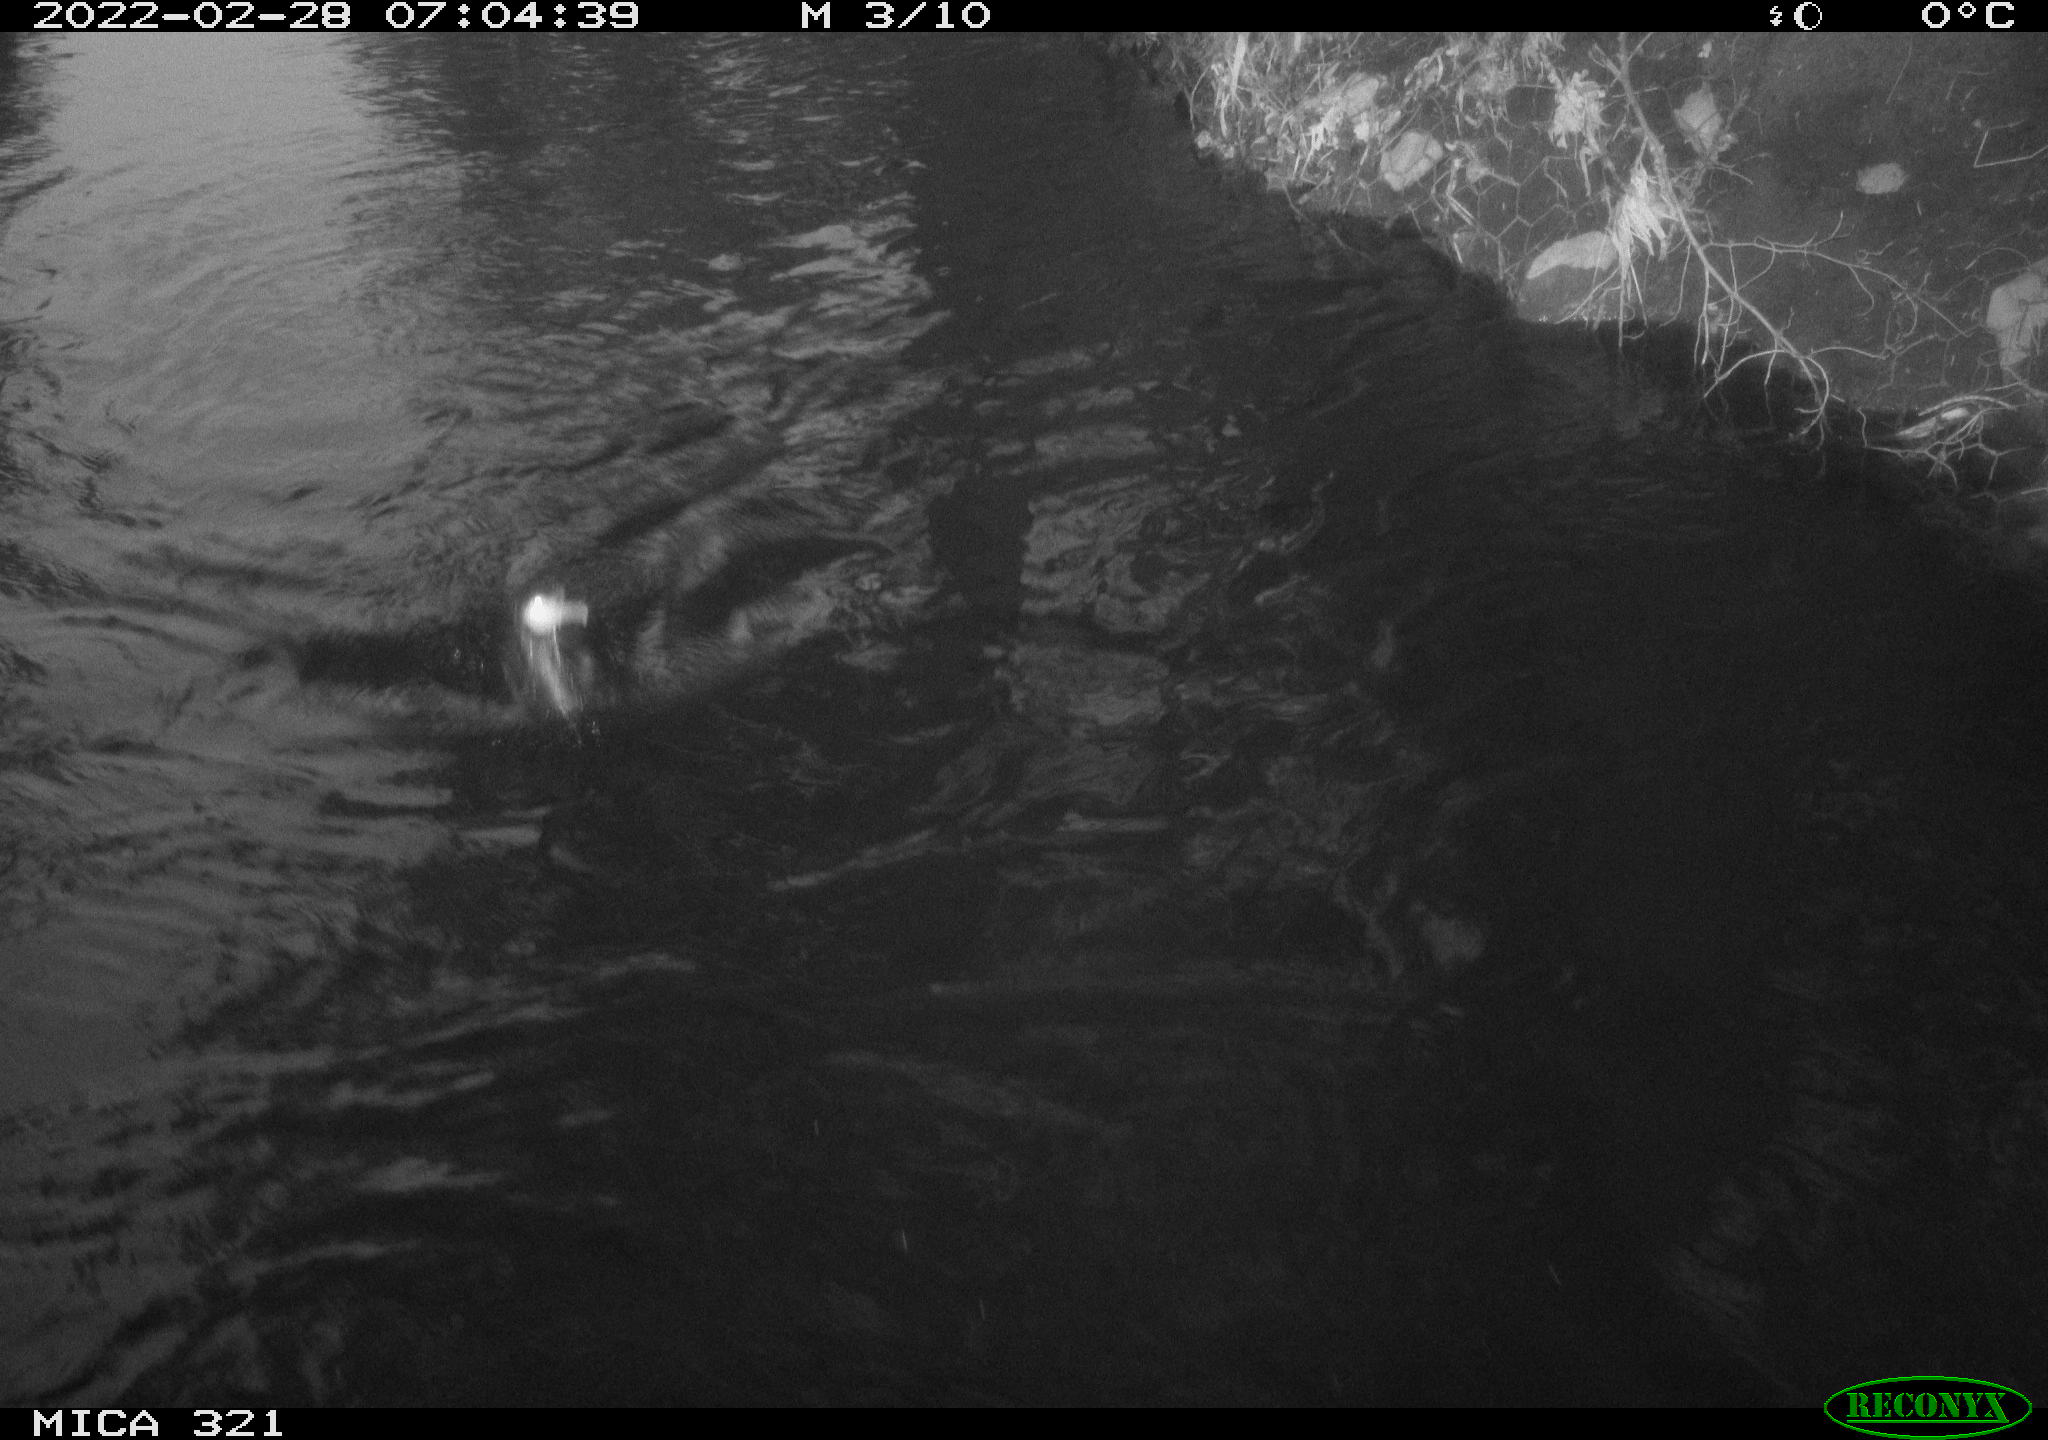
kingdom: Animalia
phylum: Chordata
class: Aves
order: Suliformes
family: Phalacrocoracidae
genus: Phalacrocorax
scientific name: Phalacrocorax carbo
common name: Great cormorant
